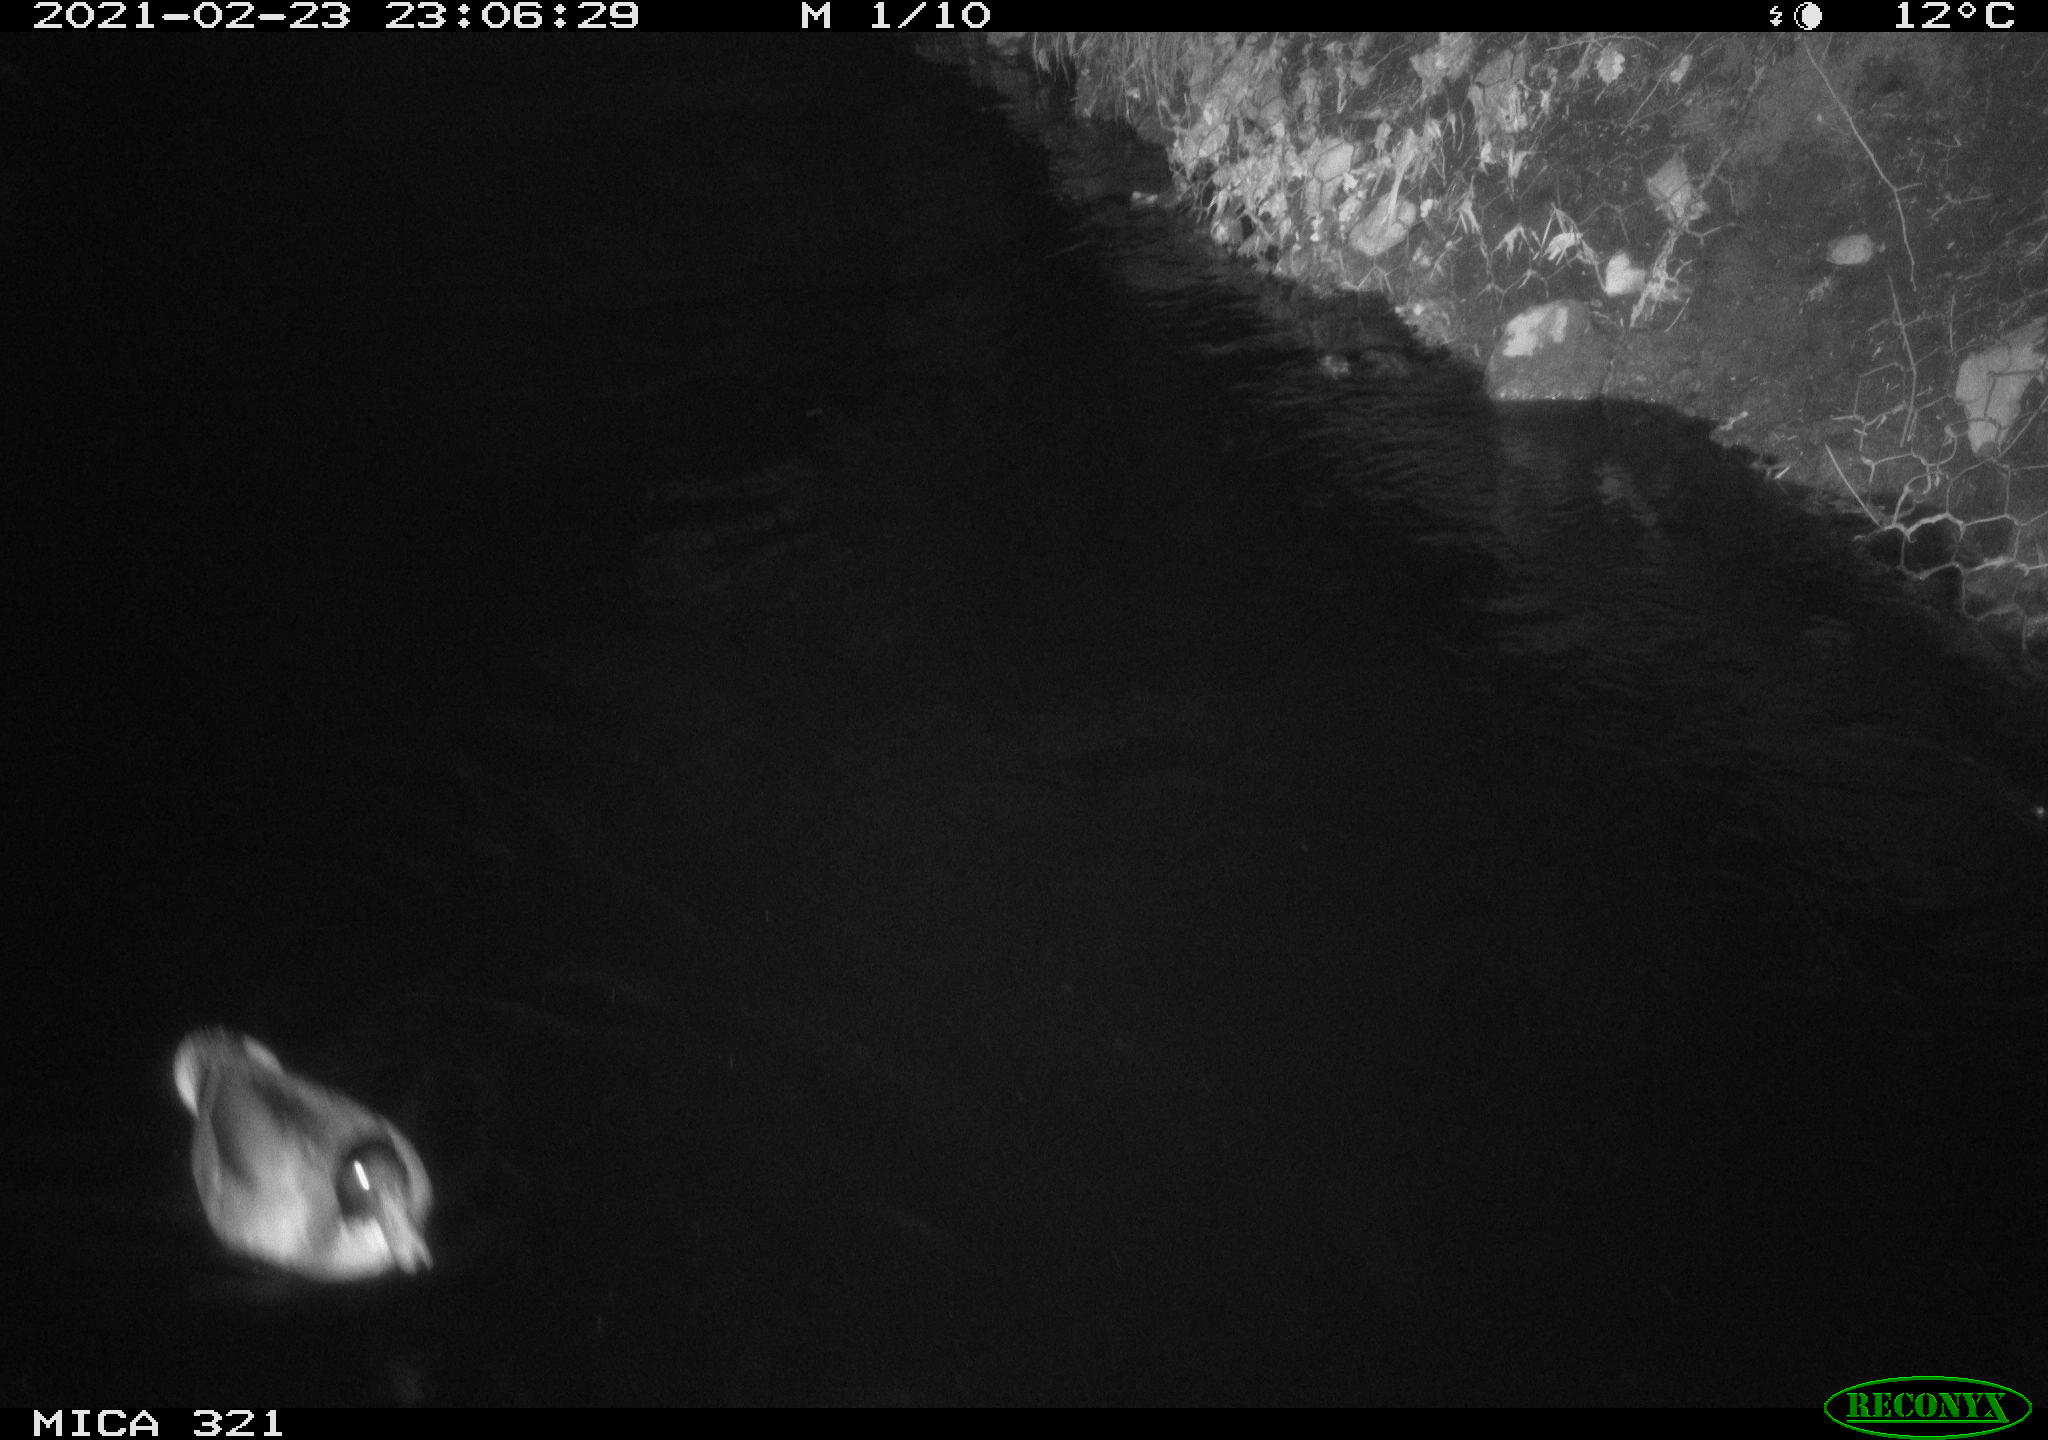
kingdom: Animalia
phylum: Chordata
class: Aves
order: Anseriformes
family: Anatidae
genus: Anas
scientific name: Anas platyrhynchos
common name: Mallard
